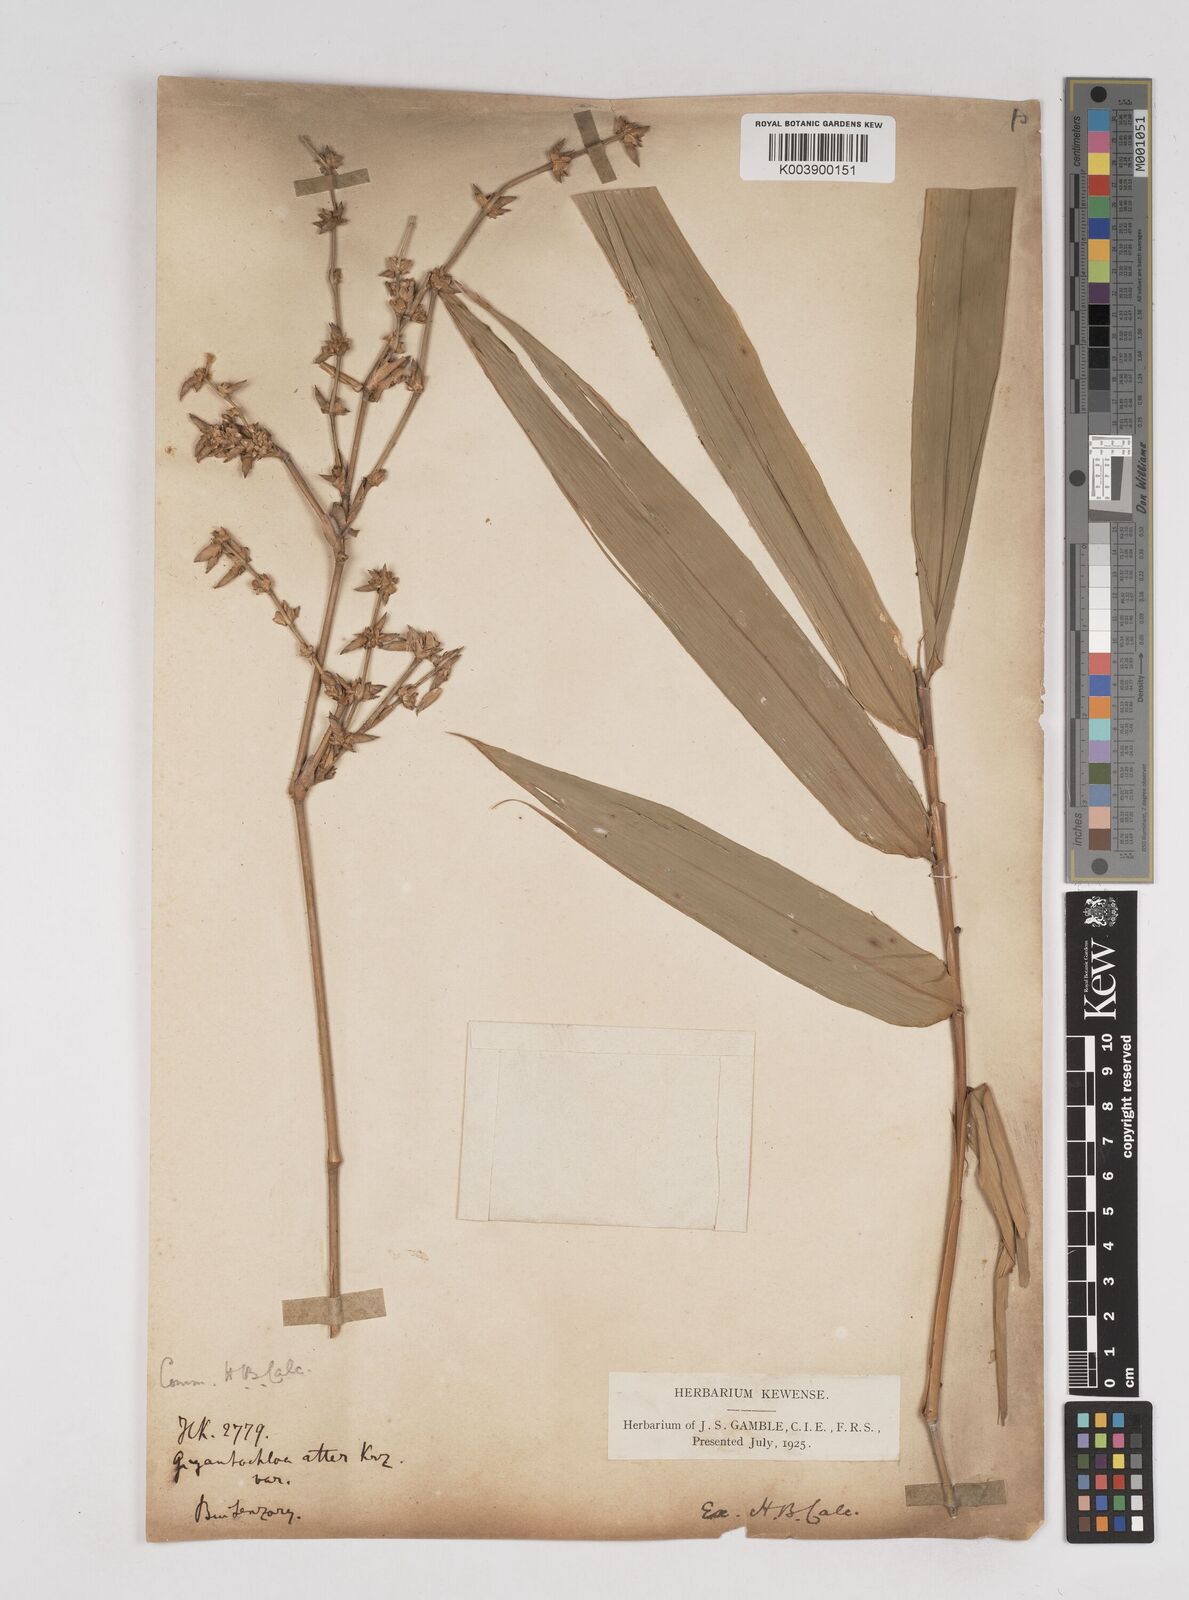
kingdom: Plantae
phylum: Tracheophyta
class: Liliopsida
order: Poales
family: Poaceae
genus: Gigantochloa
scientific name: Gigantochloa atter
